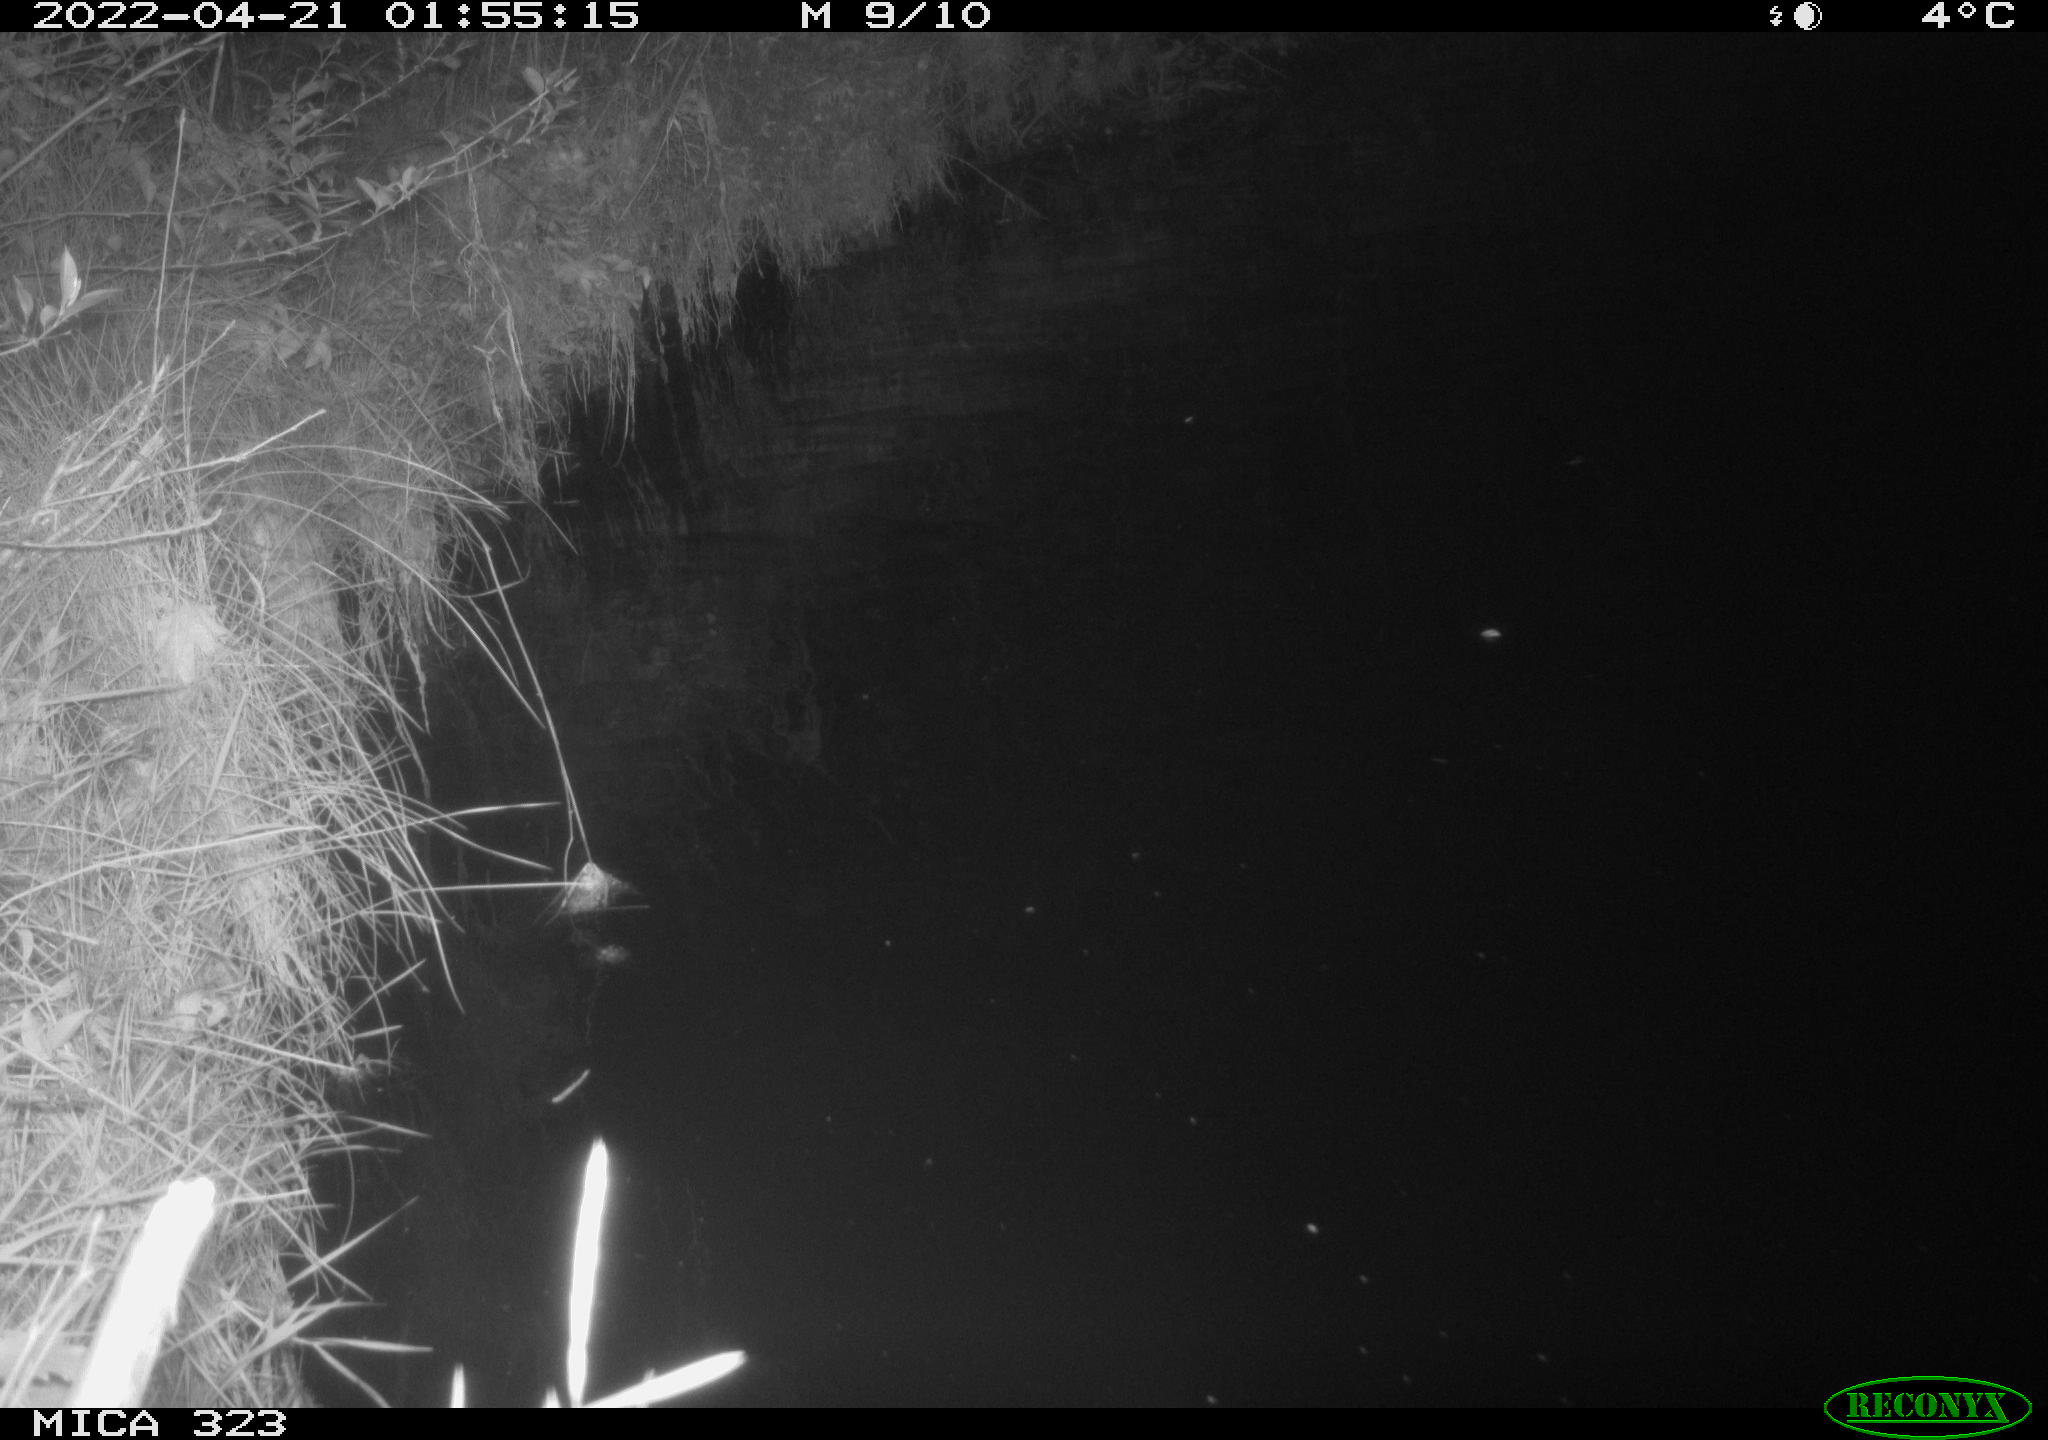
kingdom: Animalia
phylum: Chordata
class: Aves
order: Anseriformes
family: Anatidae
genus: Anas
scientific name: Anas platyrhynchos
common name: Mallard
